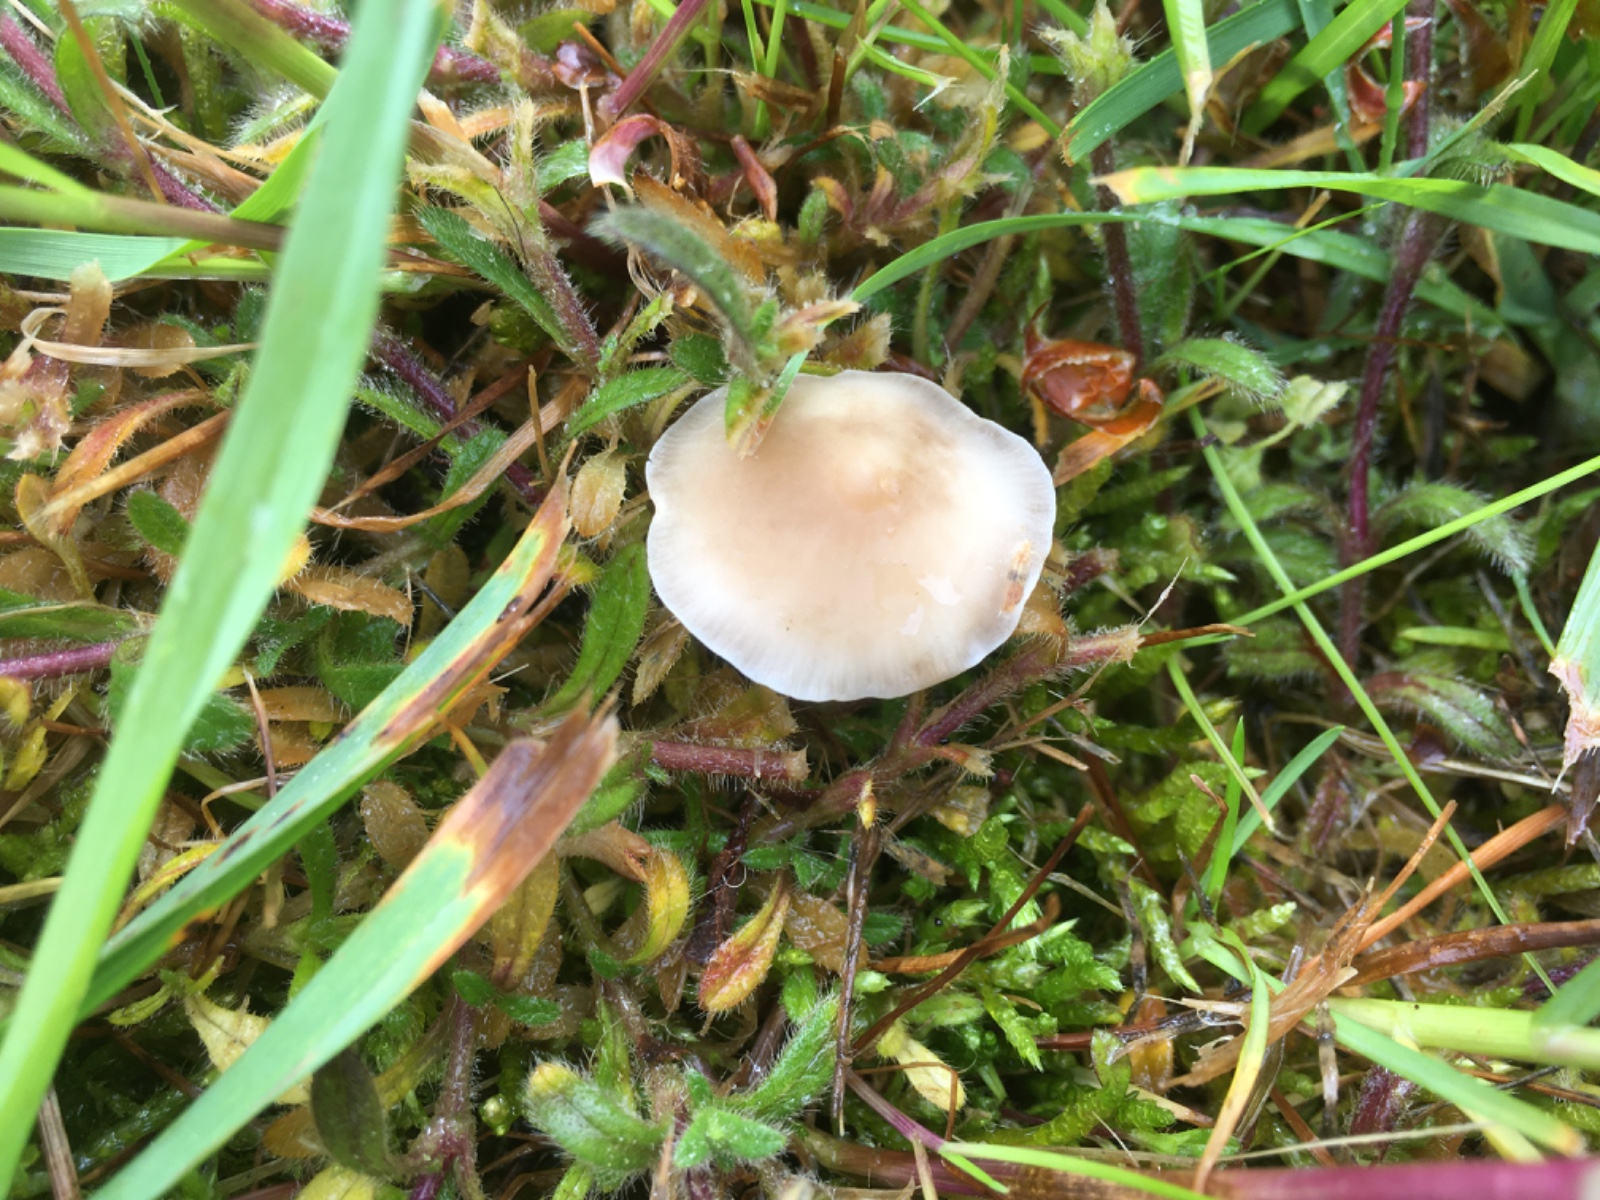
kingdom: Fungi
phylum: Basidiomycota
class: Agaricomycetes
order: Agaricales
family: Marasmiaceae
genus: Baeospora
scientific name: Baeospora myosura
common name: koglebruskhat
